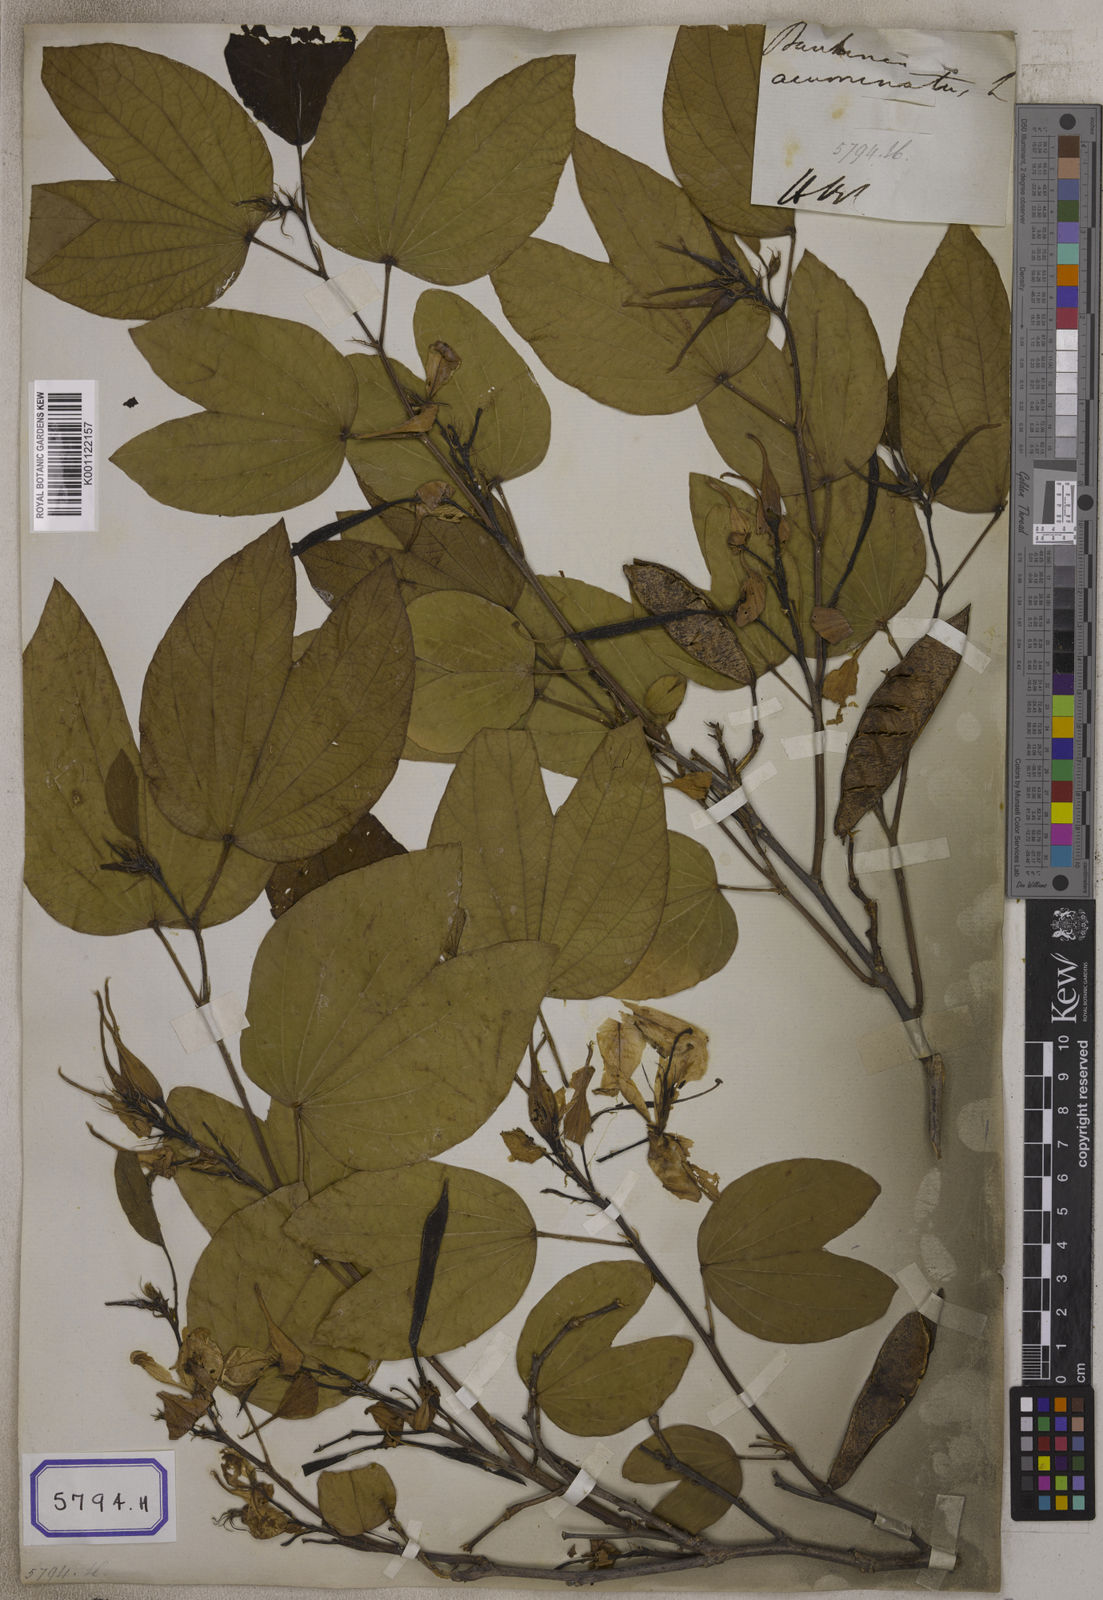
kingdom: Plantae
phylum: Tracheophyta
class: Magnoliopsida
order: Fabales
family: Fabaceae
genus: Bauhinia
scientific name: Bauhinia acuminata
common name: Dwarf white bauhinia
